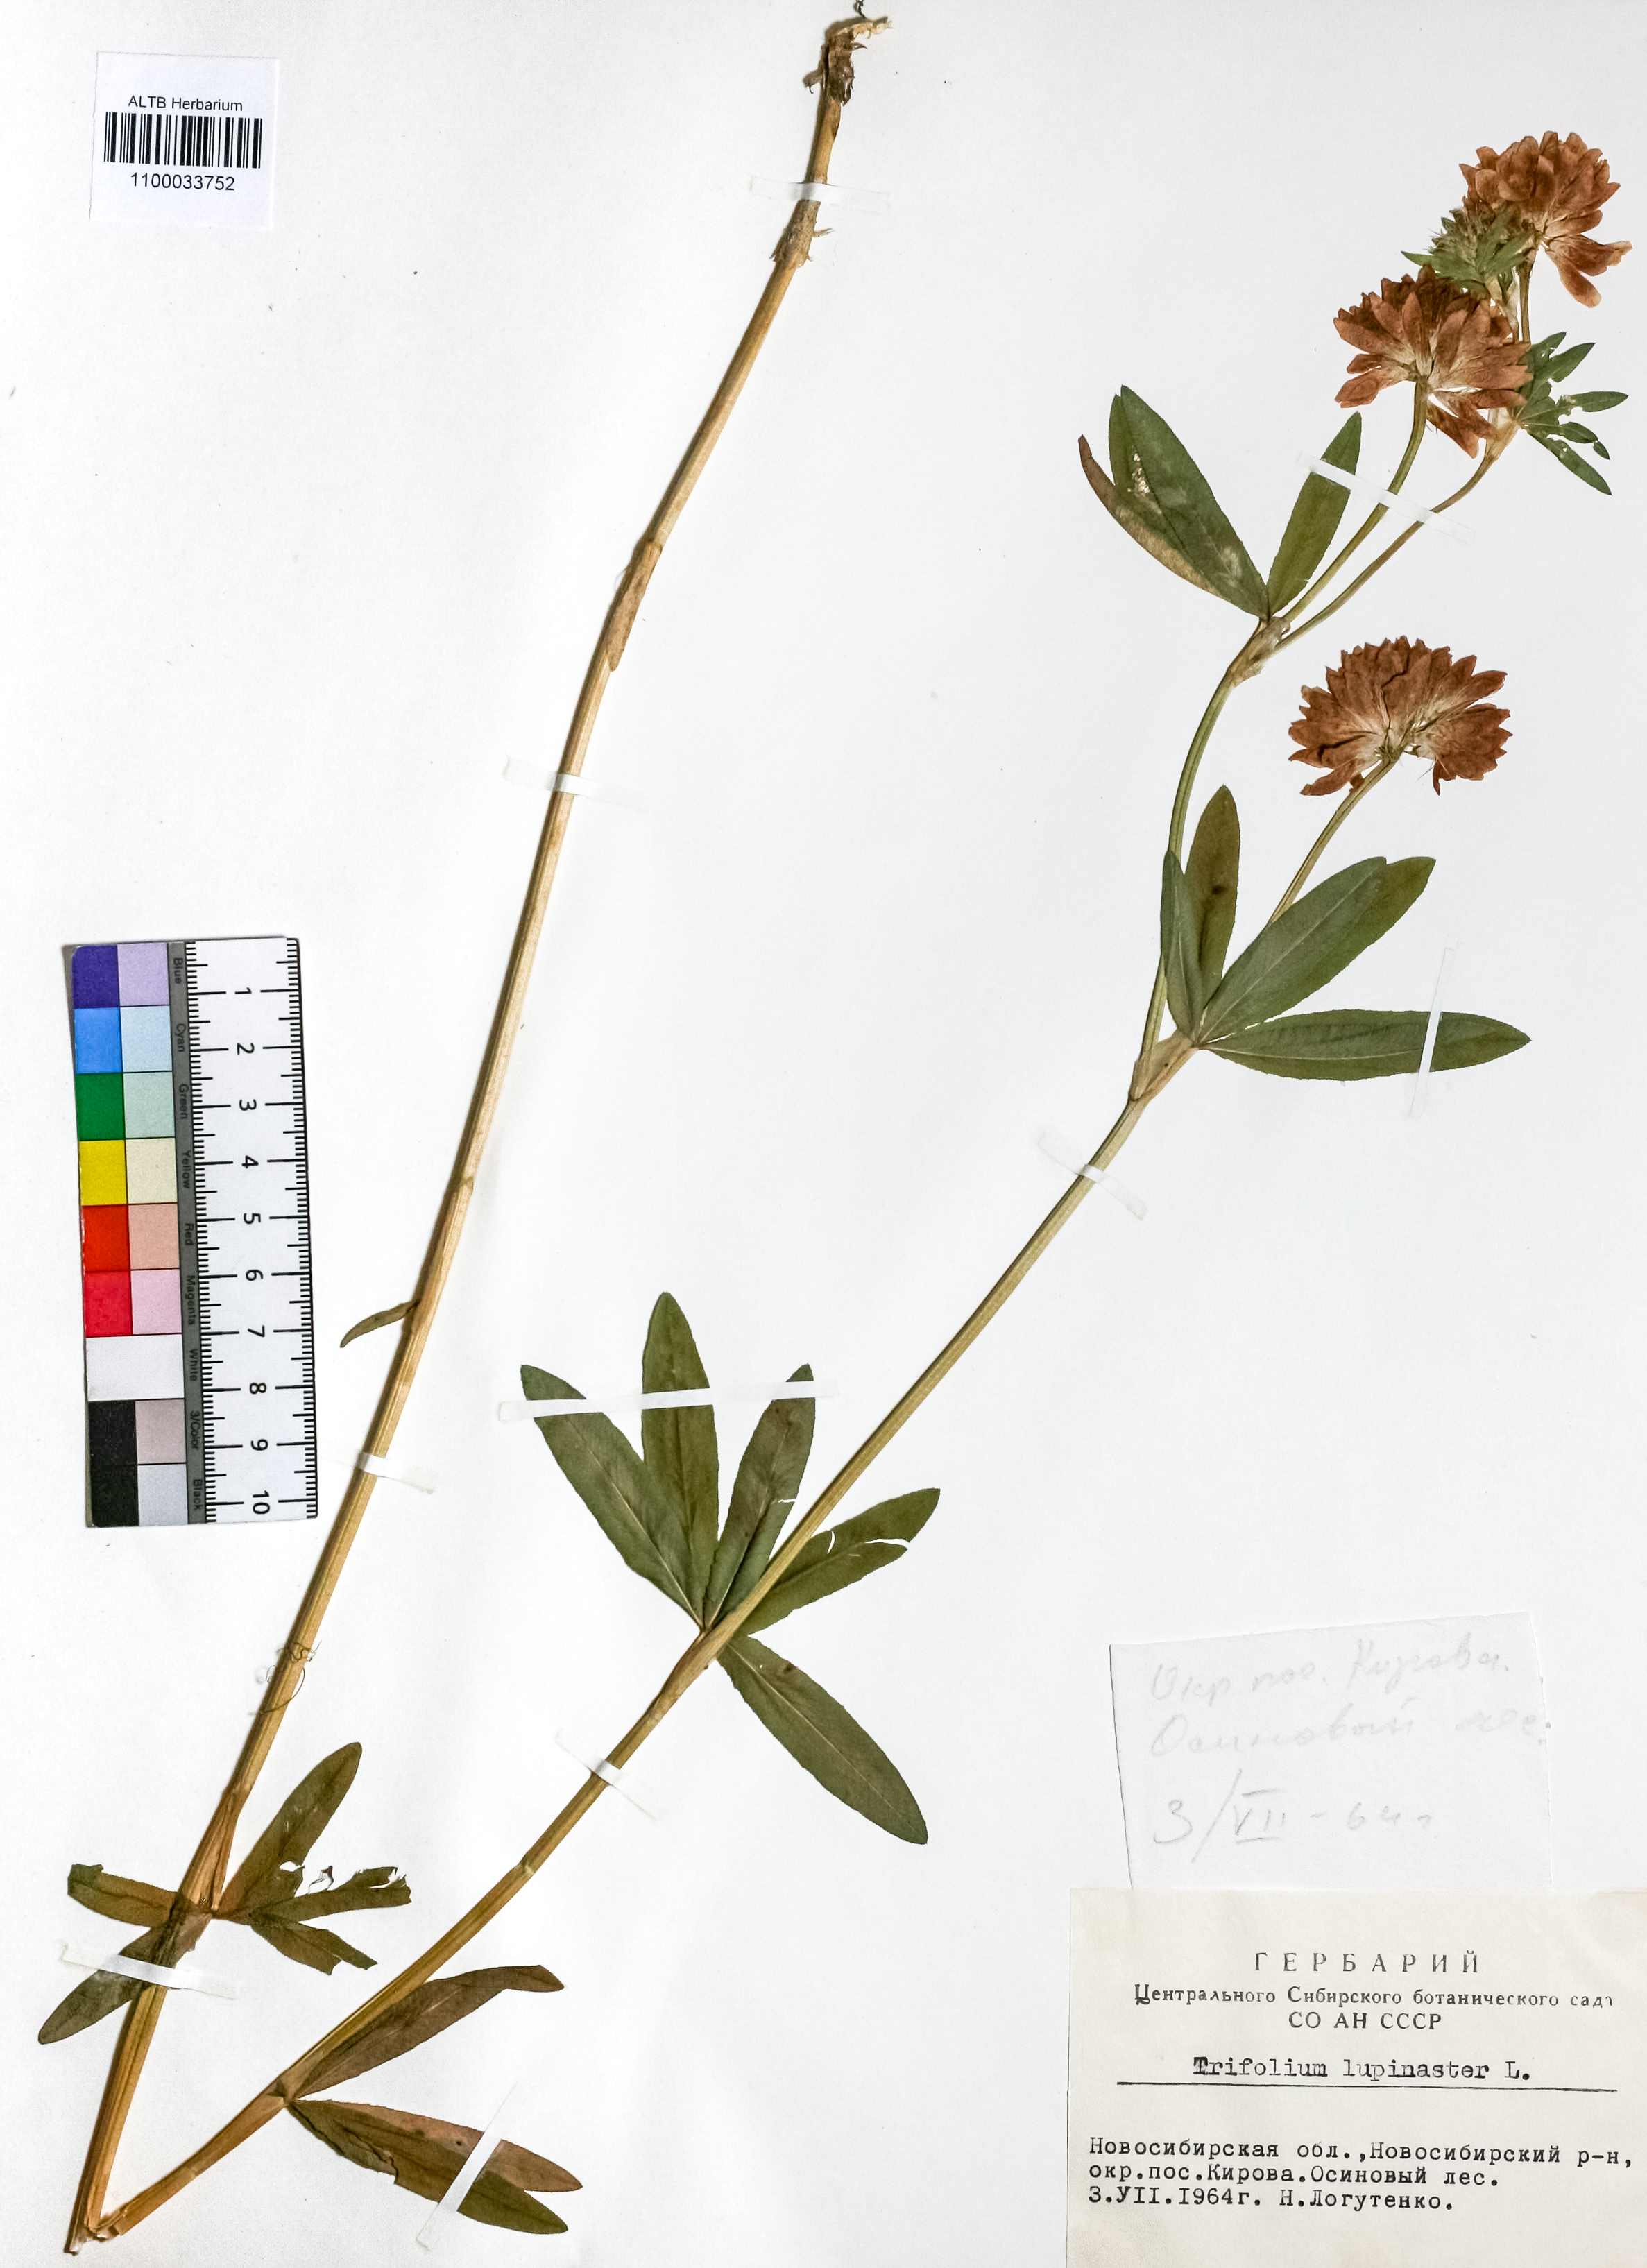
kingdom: Plantae
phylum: Tracheophyta
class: Magnoliopsida
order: Fabales
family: Fabaceae
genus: Trifolium
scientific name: Trifolium lupinaster
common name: Lupine clover
